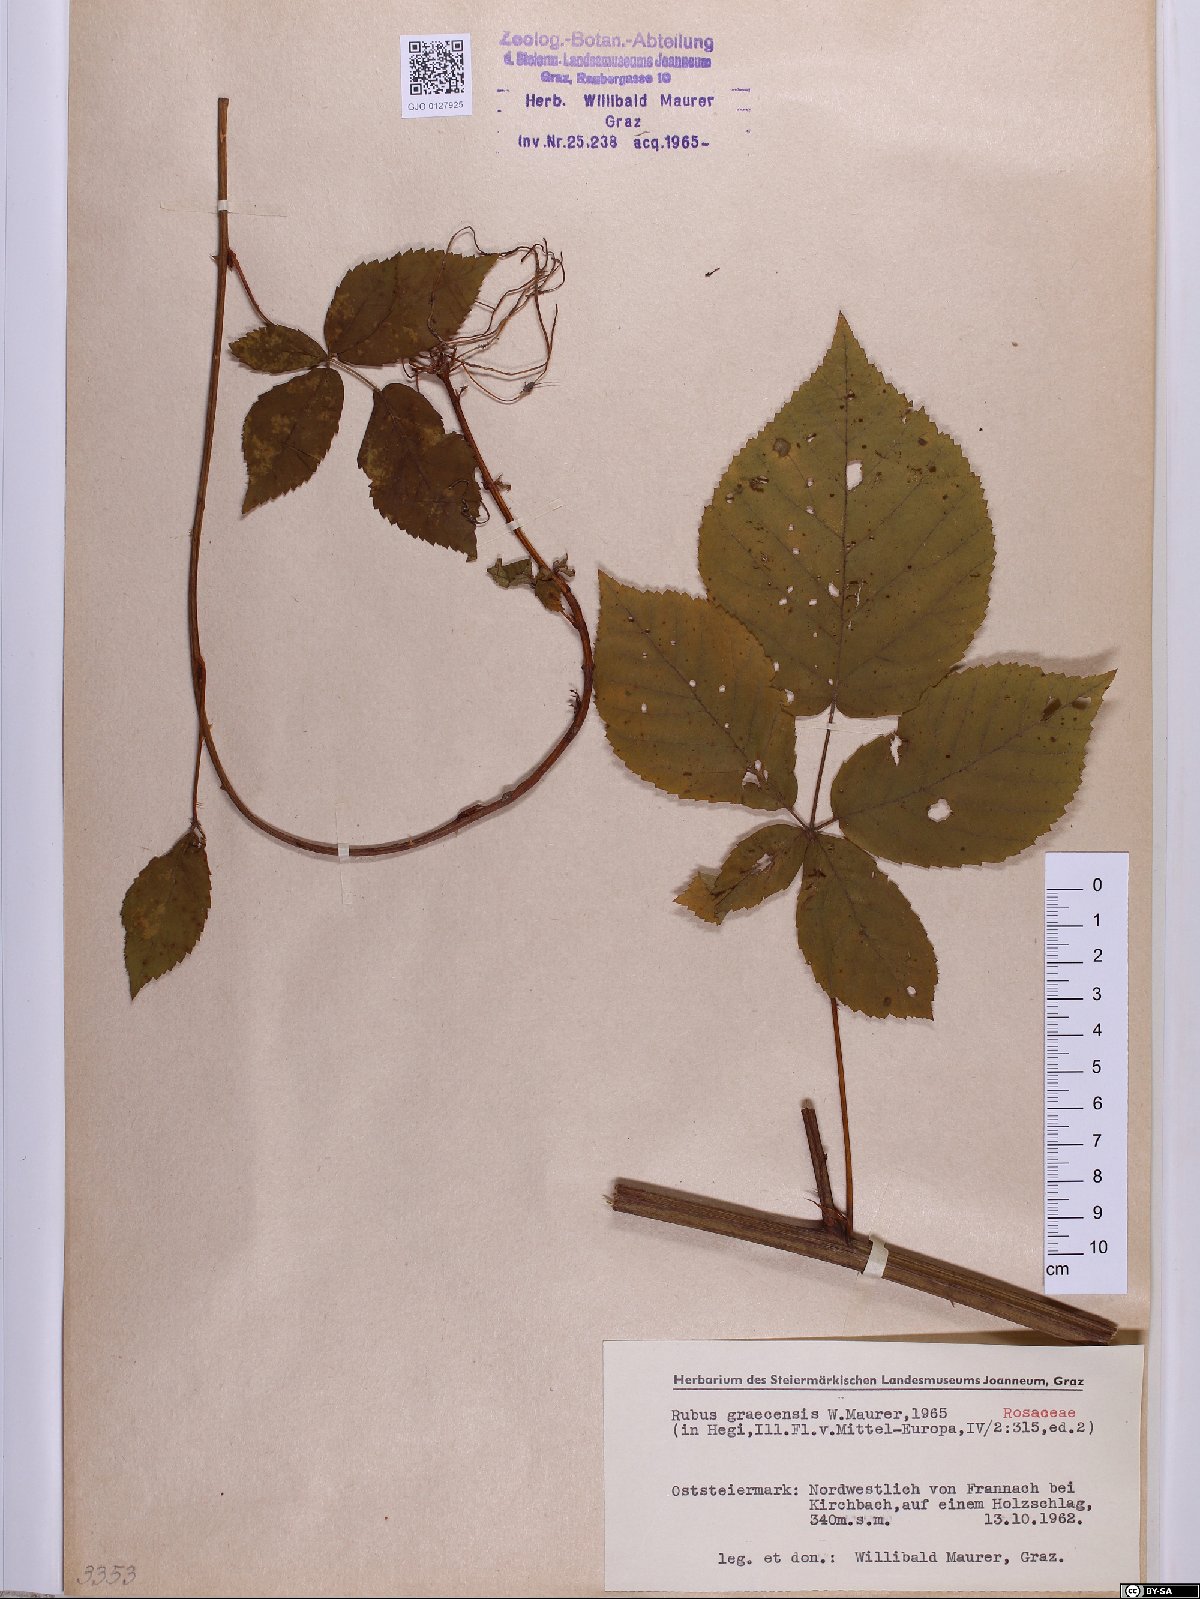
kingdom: Plantae
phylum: Tracheophyta
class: Magnoliopsida
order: Rosales
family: Rosaceae
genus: Rubus
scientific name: Rubus graecensis
